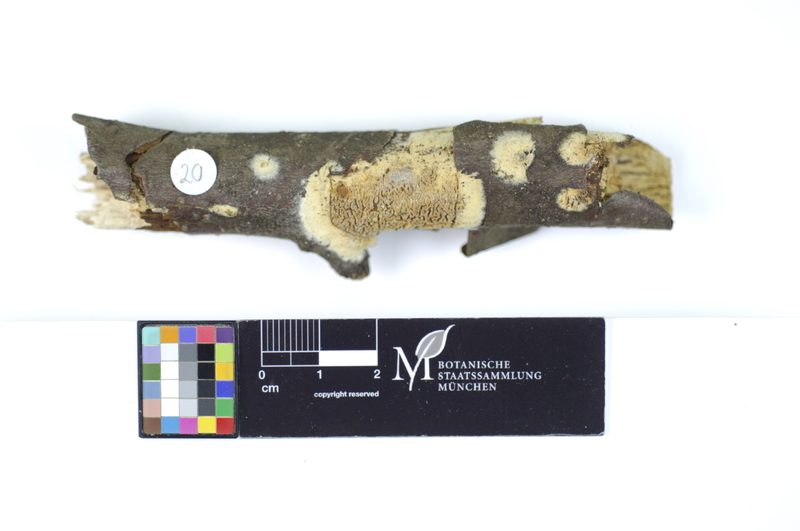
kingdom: Fungi
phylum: Basidiomycota
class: Agaricomycetes
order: Polyporales
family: Hyphodermataceae
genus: Hyphoderma
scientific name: Hyphoderma setigerum
